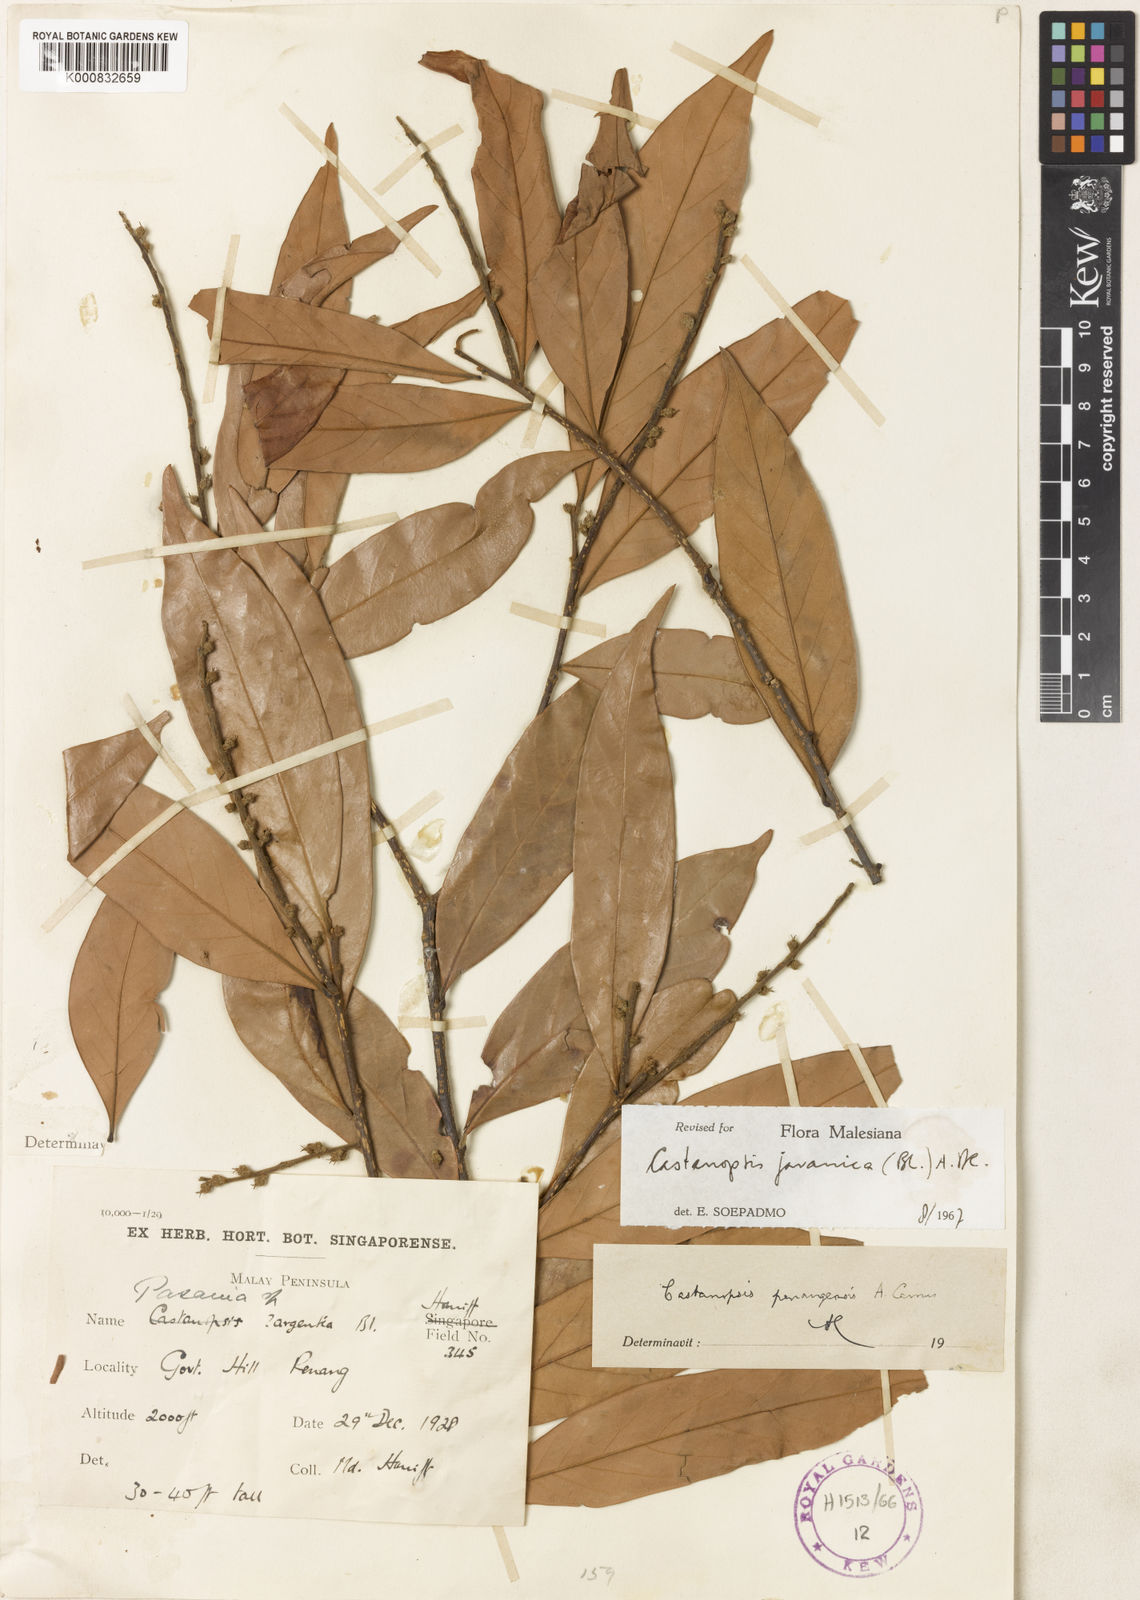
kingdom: Plantae
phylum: Tracheophyta
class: Magnoliopsida
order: Fagales
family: Fagaceae
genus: Castanopsis
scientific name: Castanopsis javanica
